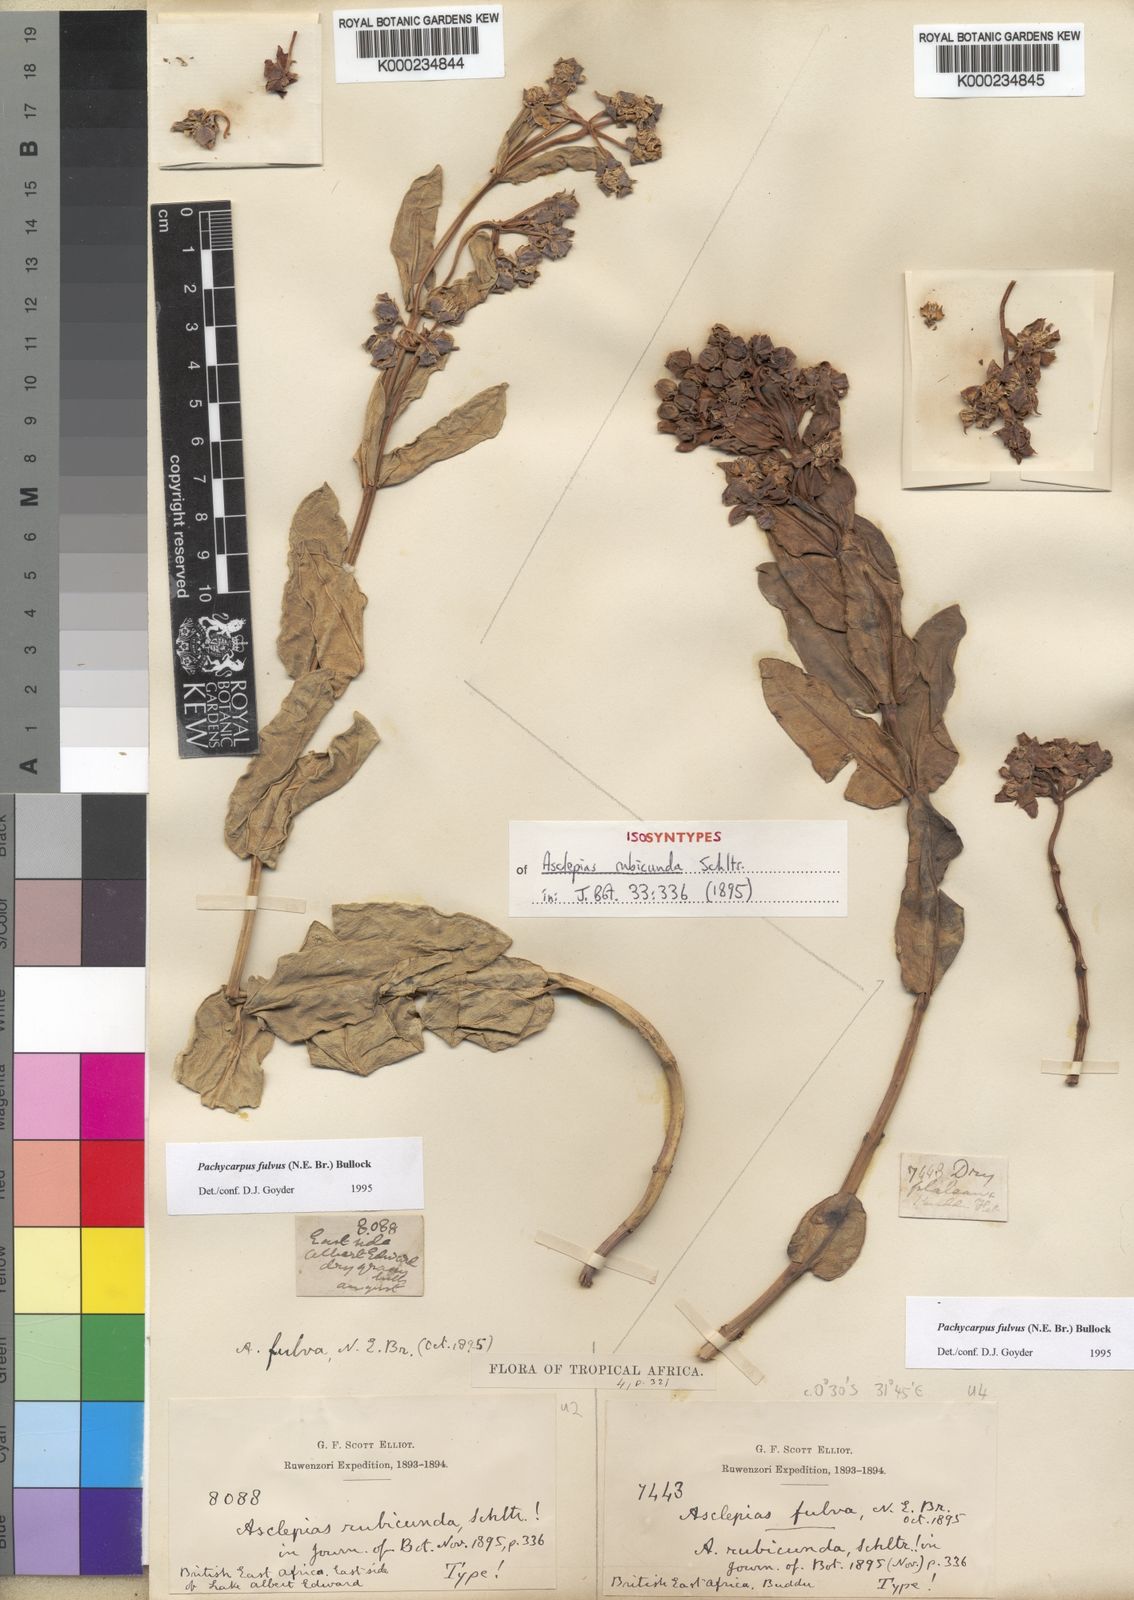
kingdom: Plantae
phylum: Tracheophyta
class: Magnoliopsida
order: Gentianales
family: Apocynaceae
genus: Asclepias
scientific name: Asclepias fulva
